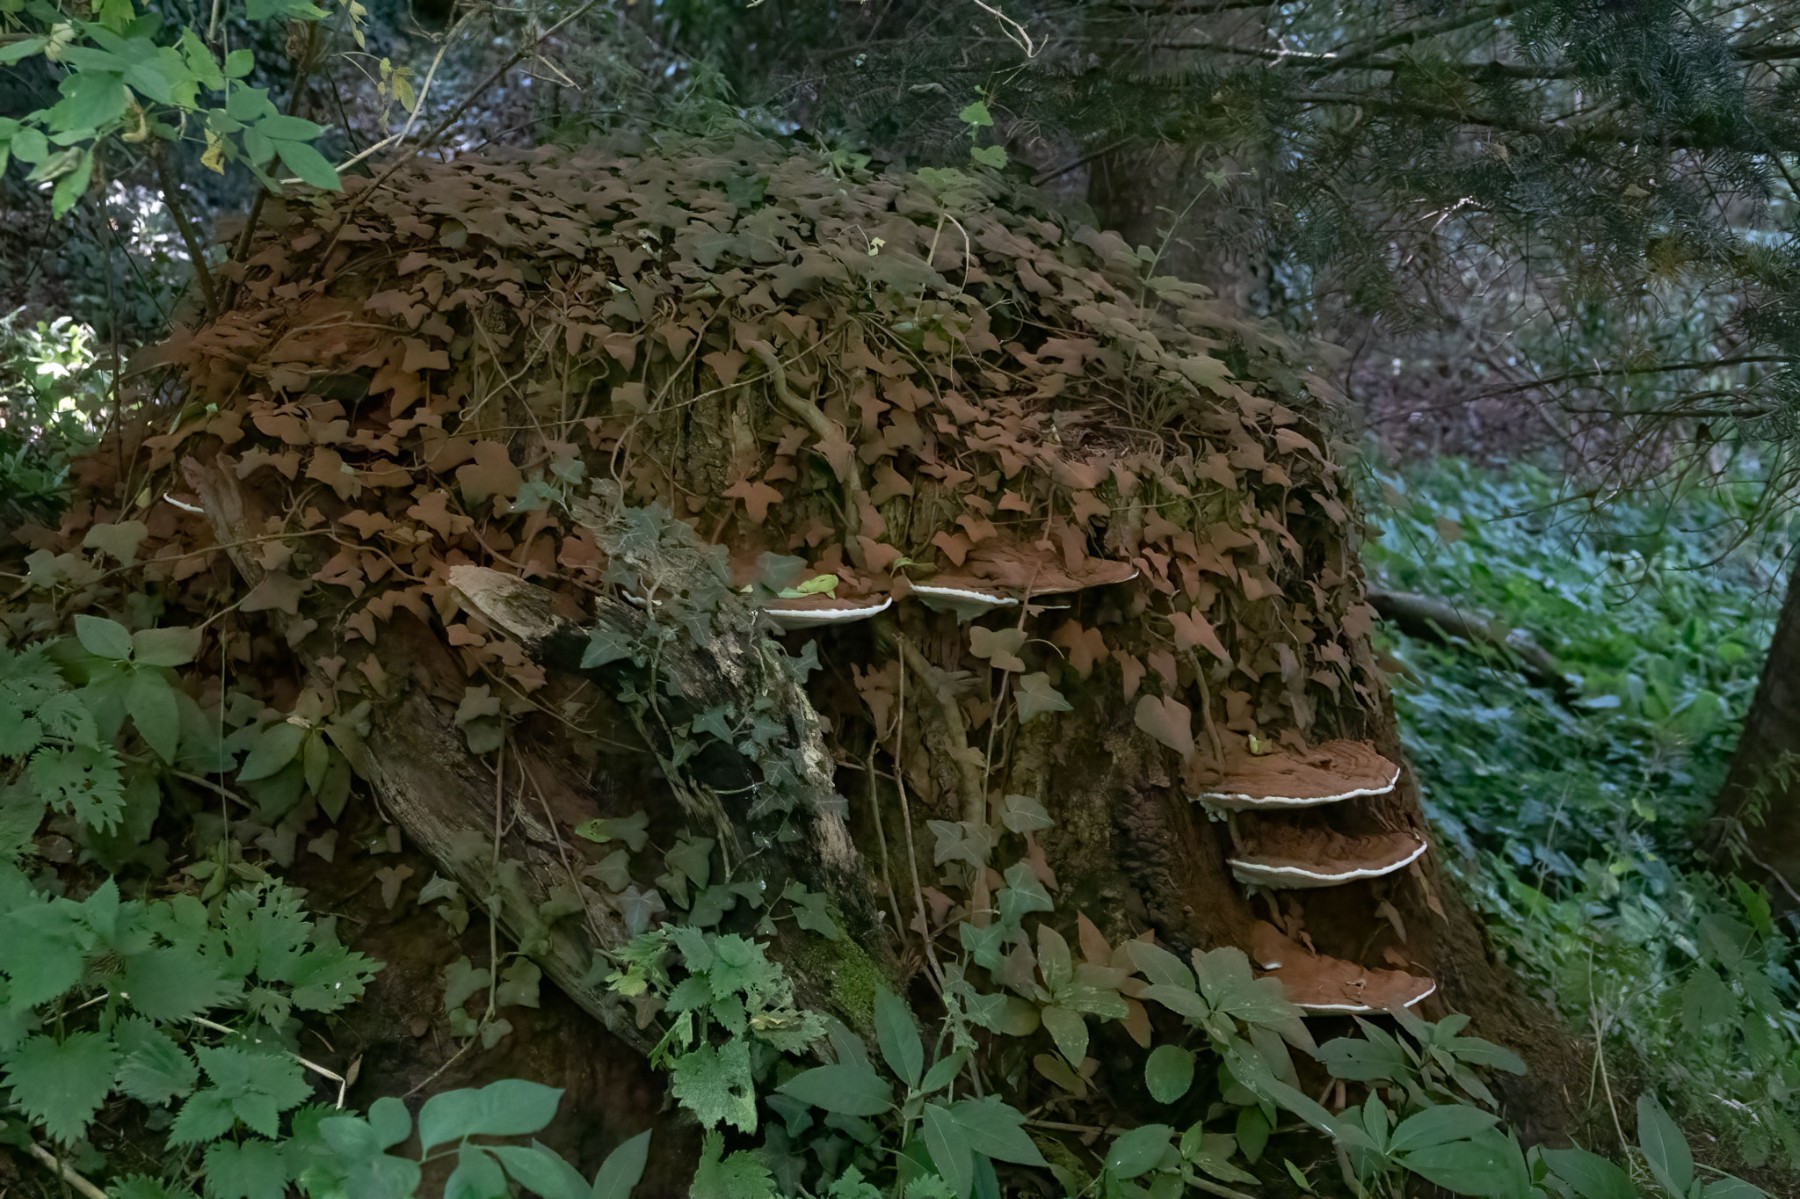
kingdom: Fungi
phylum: Basidiomycota
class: Agaricomycetes
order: Polyporales
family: Polyporaceae
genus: Ganoderma
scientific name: Ganoderma applanatum
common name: flad lakporesvamp
